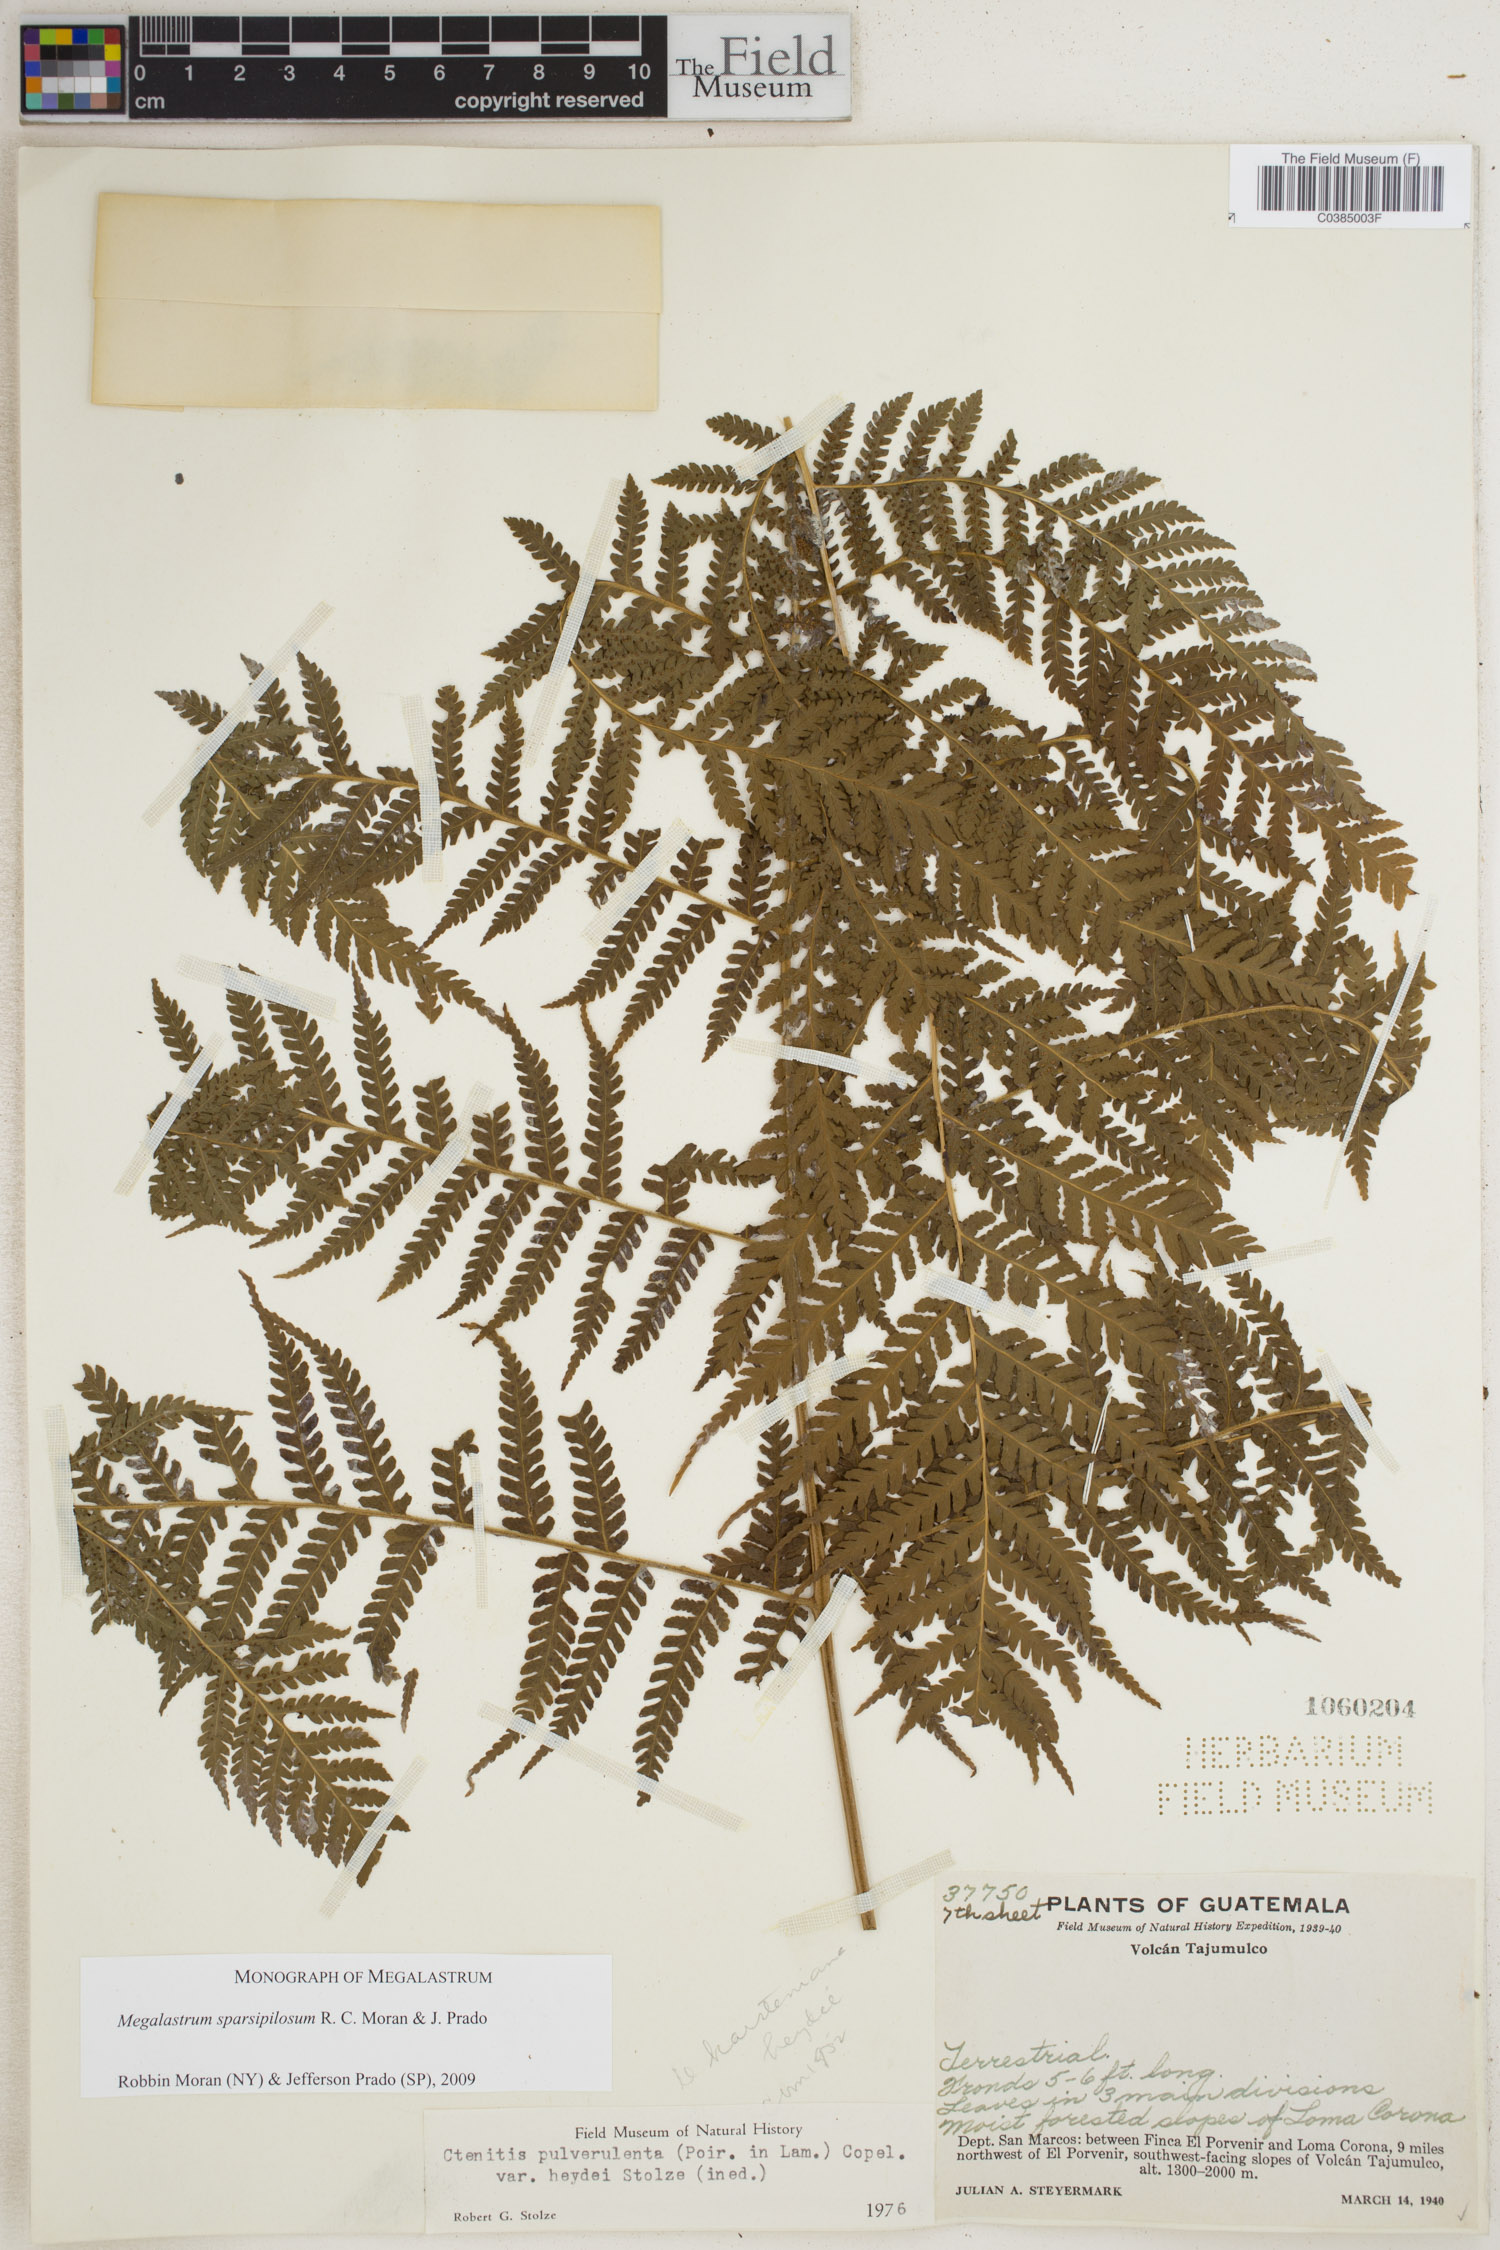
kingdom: Plantae
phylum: Tracheophyta
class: Polypodiopsida
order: Polypodiales
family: Dryopteridaceae
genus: Megalastrum
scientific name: Megalastrum sparsipilosum
